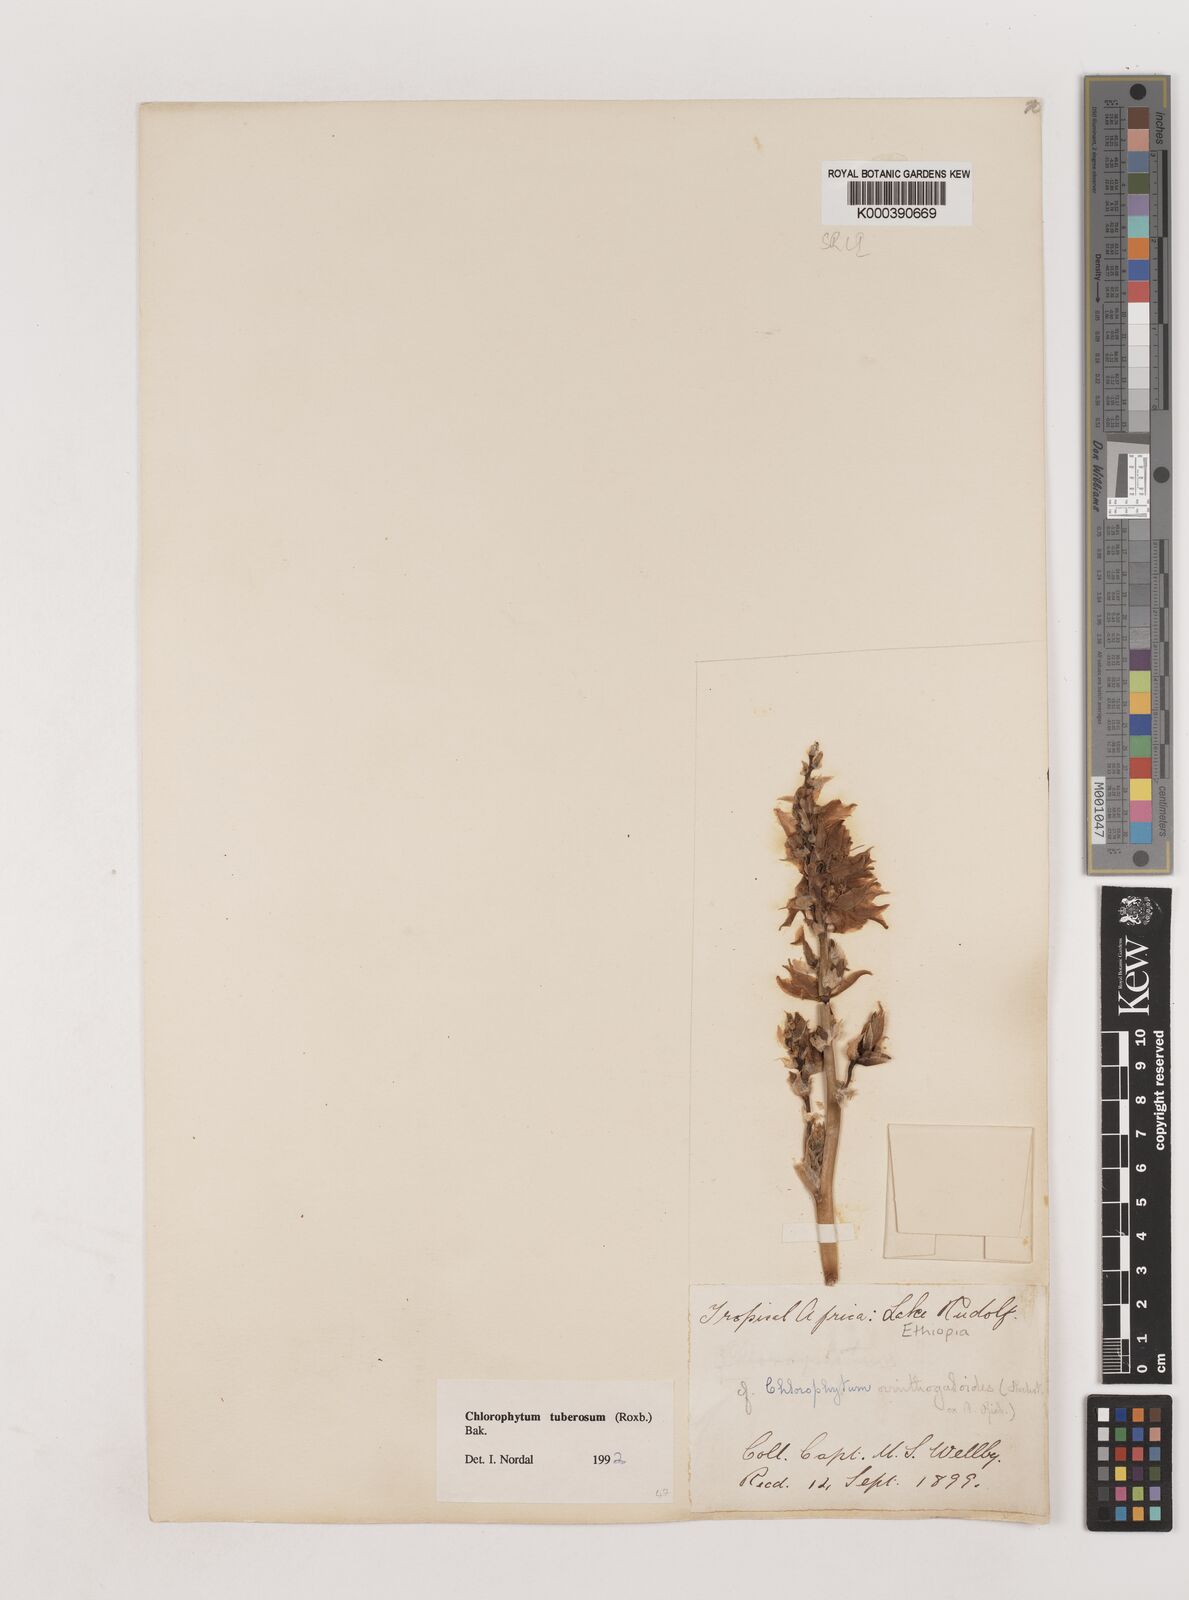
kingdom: Plantae
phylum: Tracheophyta
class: Liliopsida
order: Asparagales
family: Asparagaceae
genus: Chlorophytum
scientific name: Chlorophytum tuberosum
